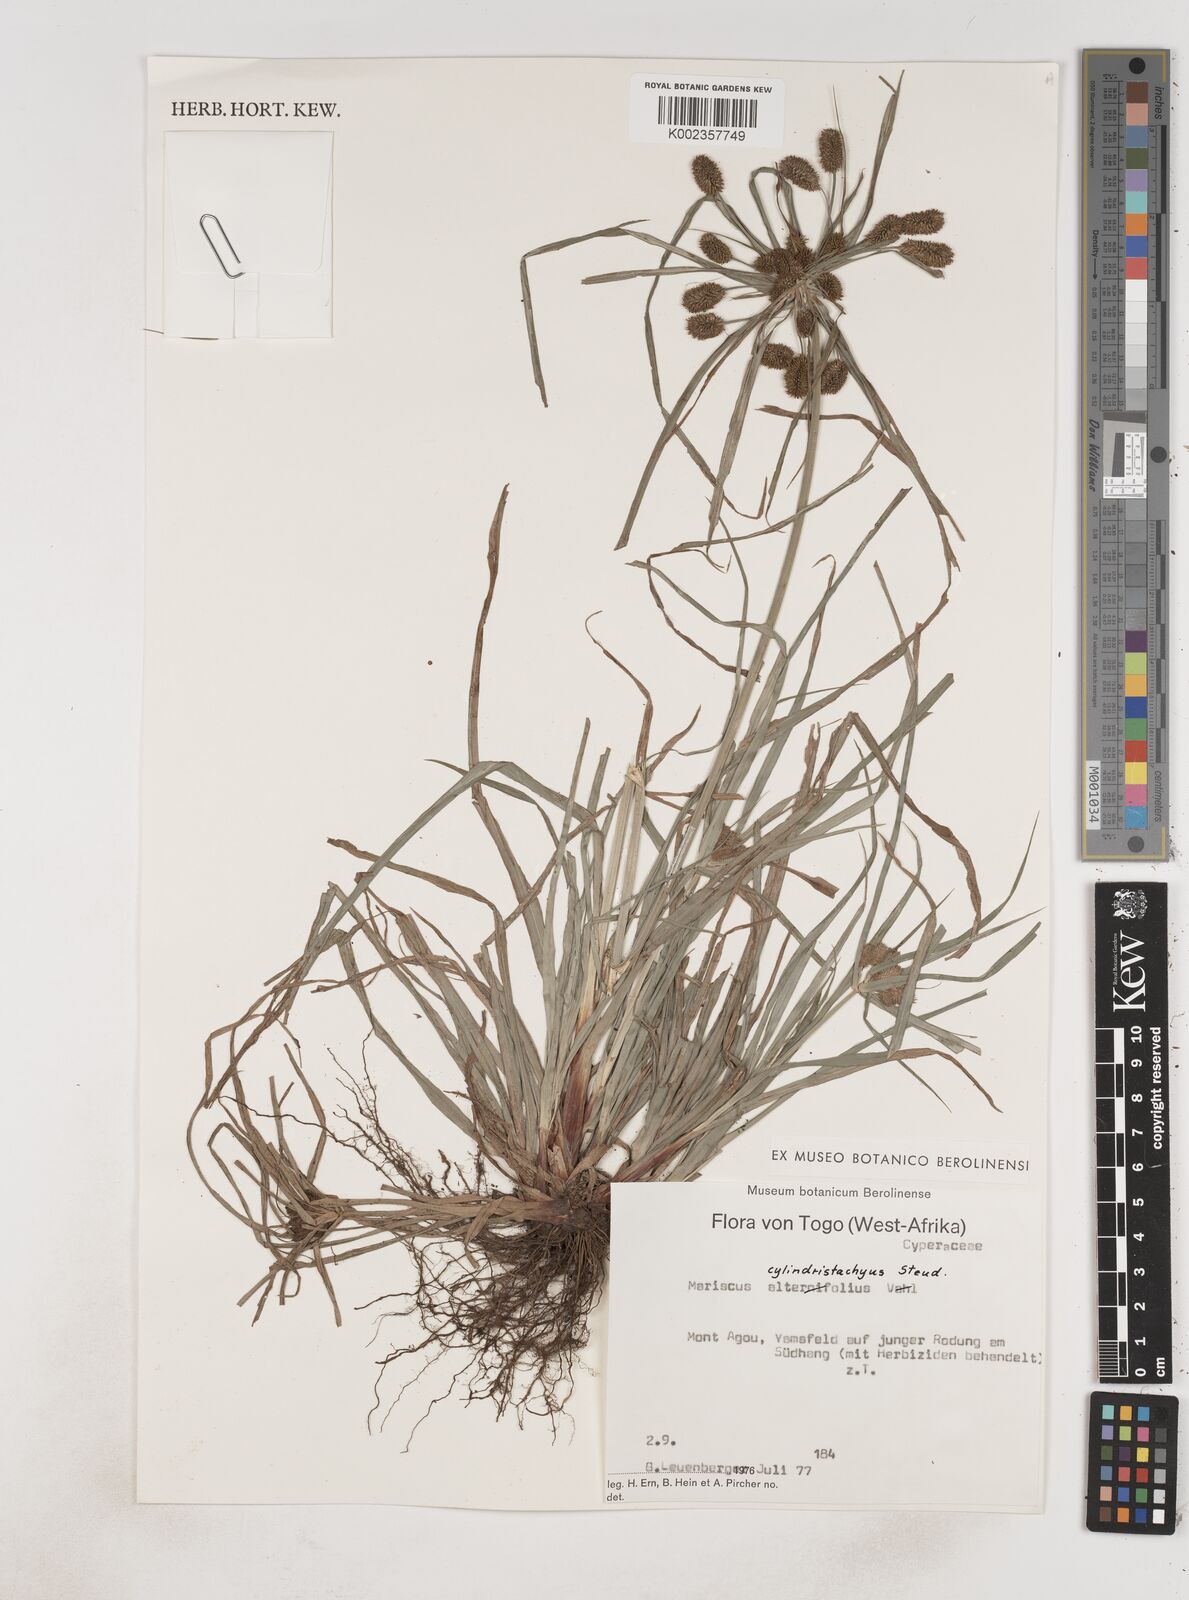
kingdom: Plantae
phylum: Tracheophyta
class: Liliopsida
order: Poales
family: Cyperaceae
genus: Cyperus
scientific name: Cyperus alternifolius
